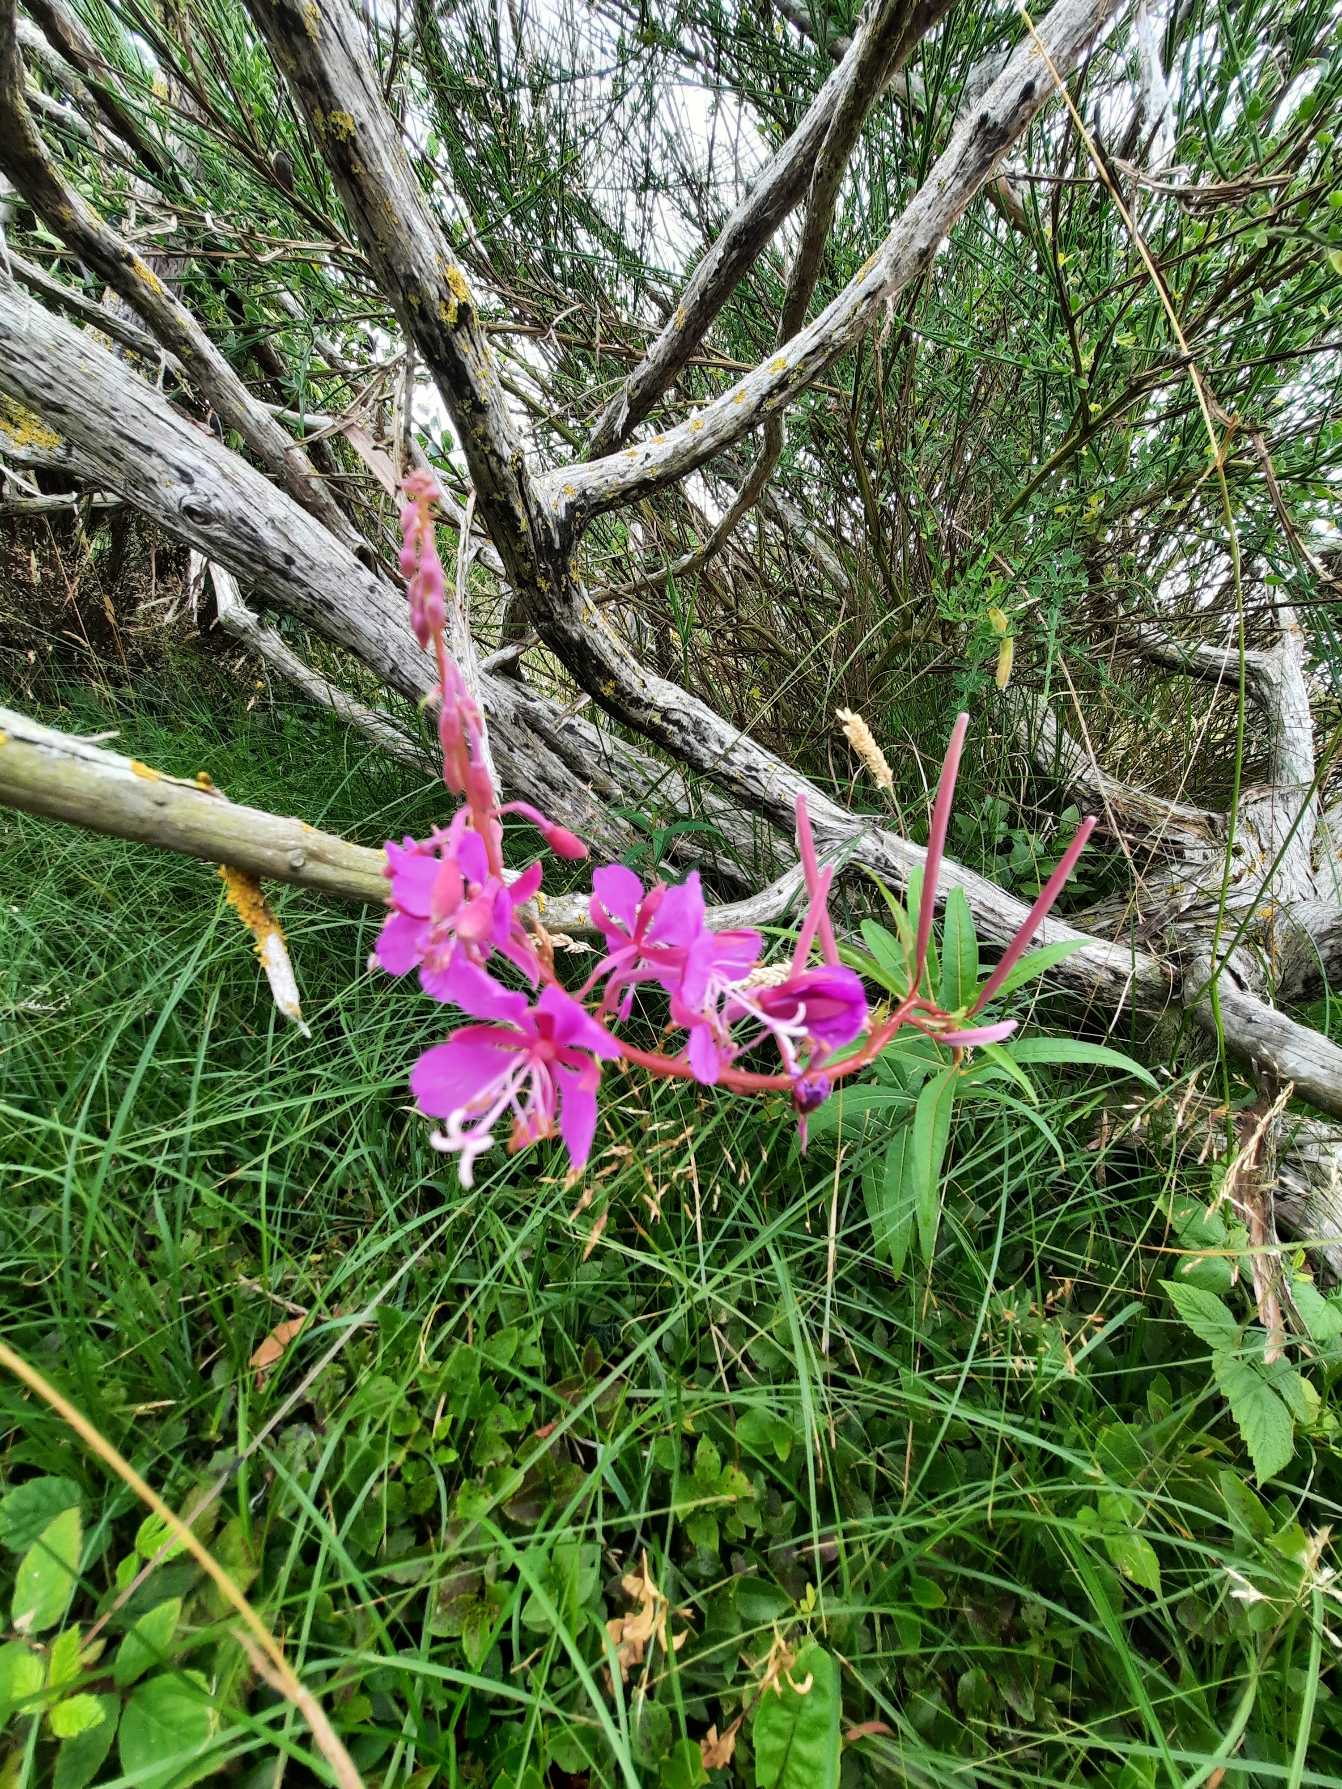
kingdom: Plantae
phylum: Tracheophyta
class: Magnoliopsida
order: Myrtales
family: Onagraceae
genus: Chamaenerion
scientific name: Chamaenerion angustifolium
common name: Gederams
